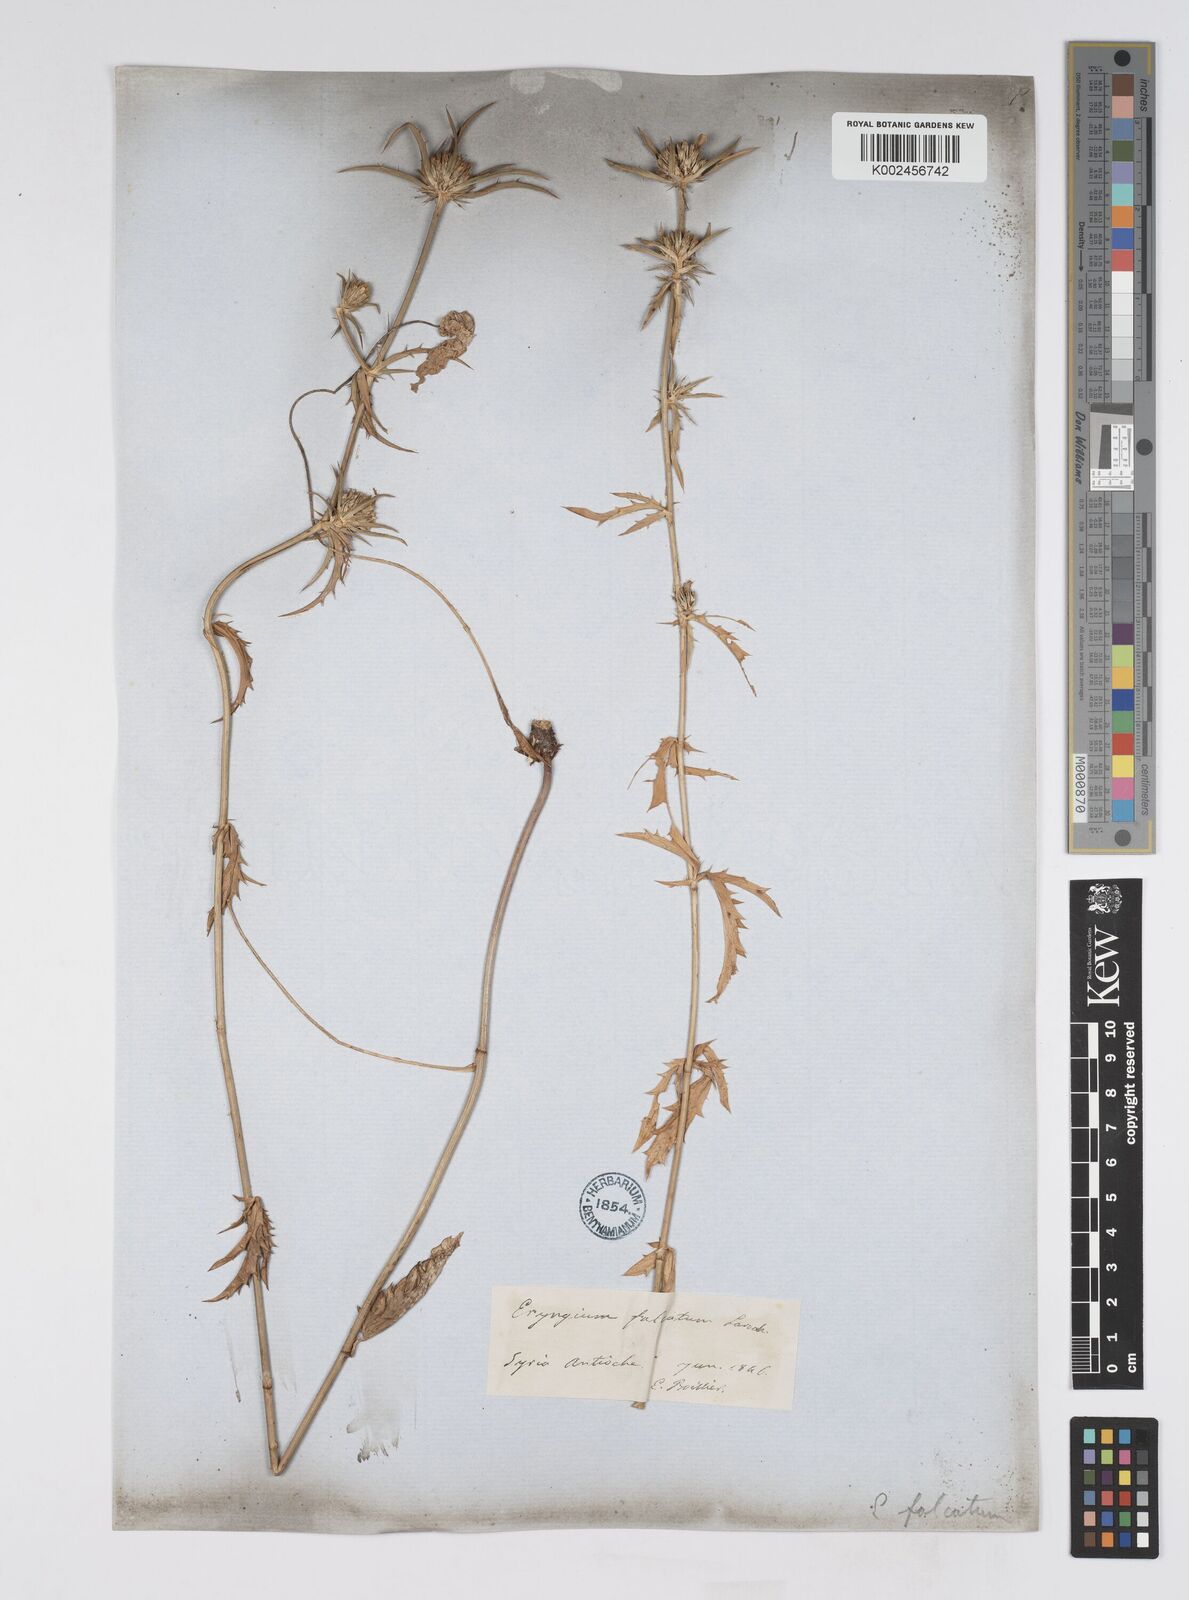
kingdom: Plantae
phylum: Tracheophyta
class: Magnoliopsida
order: Apiales
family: Apiaceae
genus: Eryngium
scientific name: Eryngium falcatum
